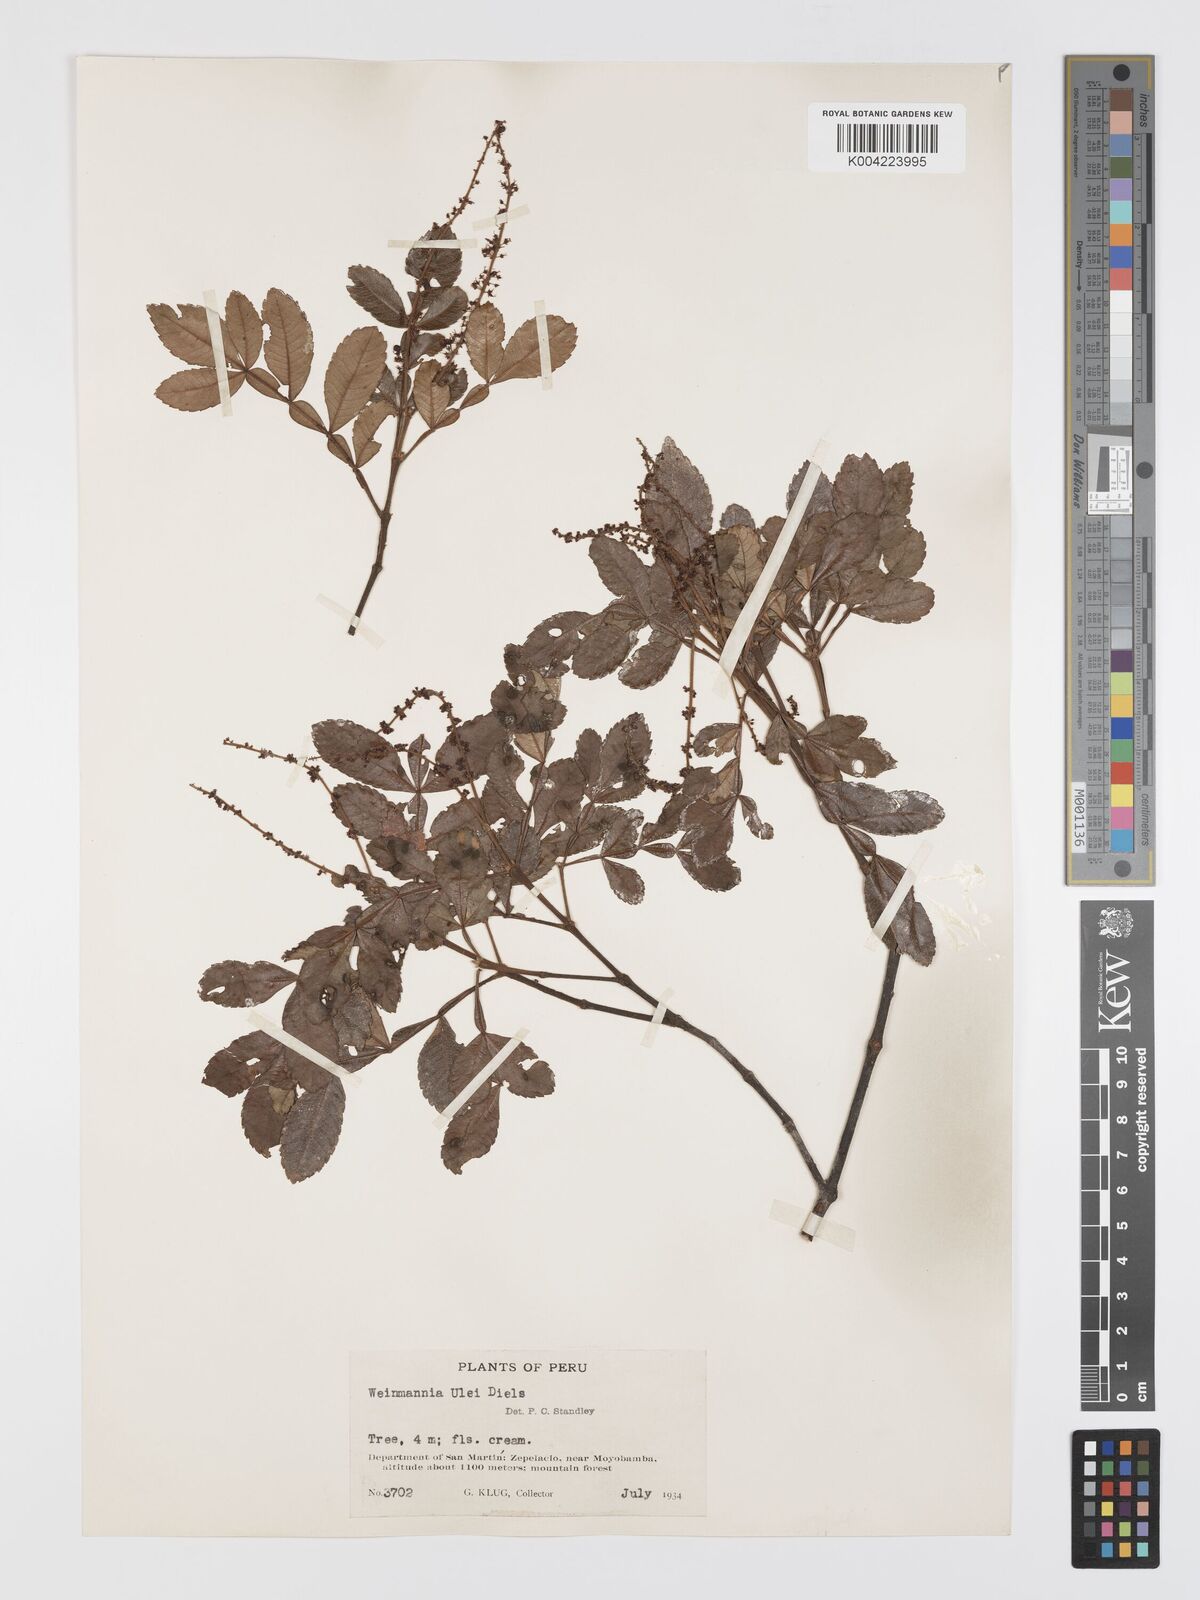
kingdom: Plantae
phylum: Tracheophyta
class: Magnoliopsida
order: Oxalidales
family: Cunoniaceae
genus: Weinmannia
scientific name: Weinmannia ulei
